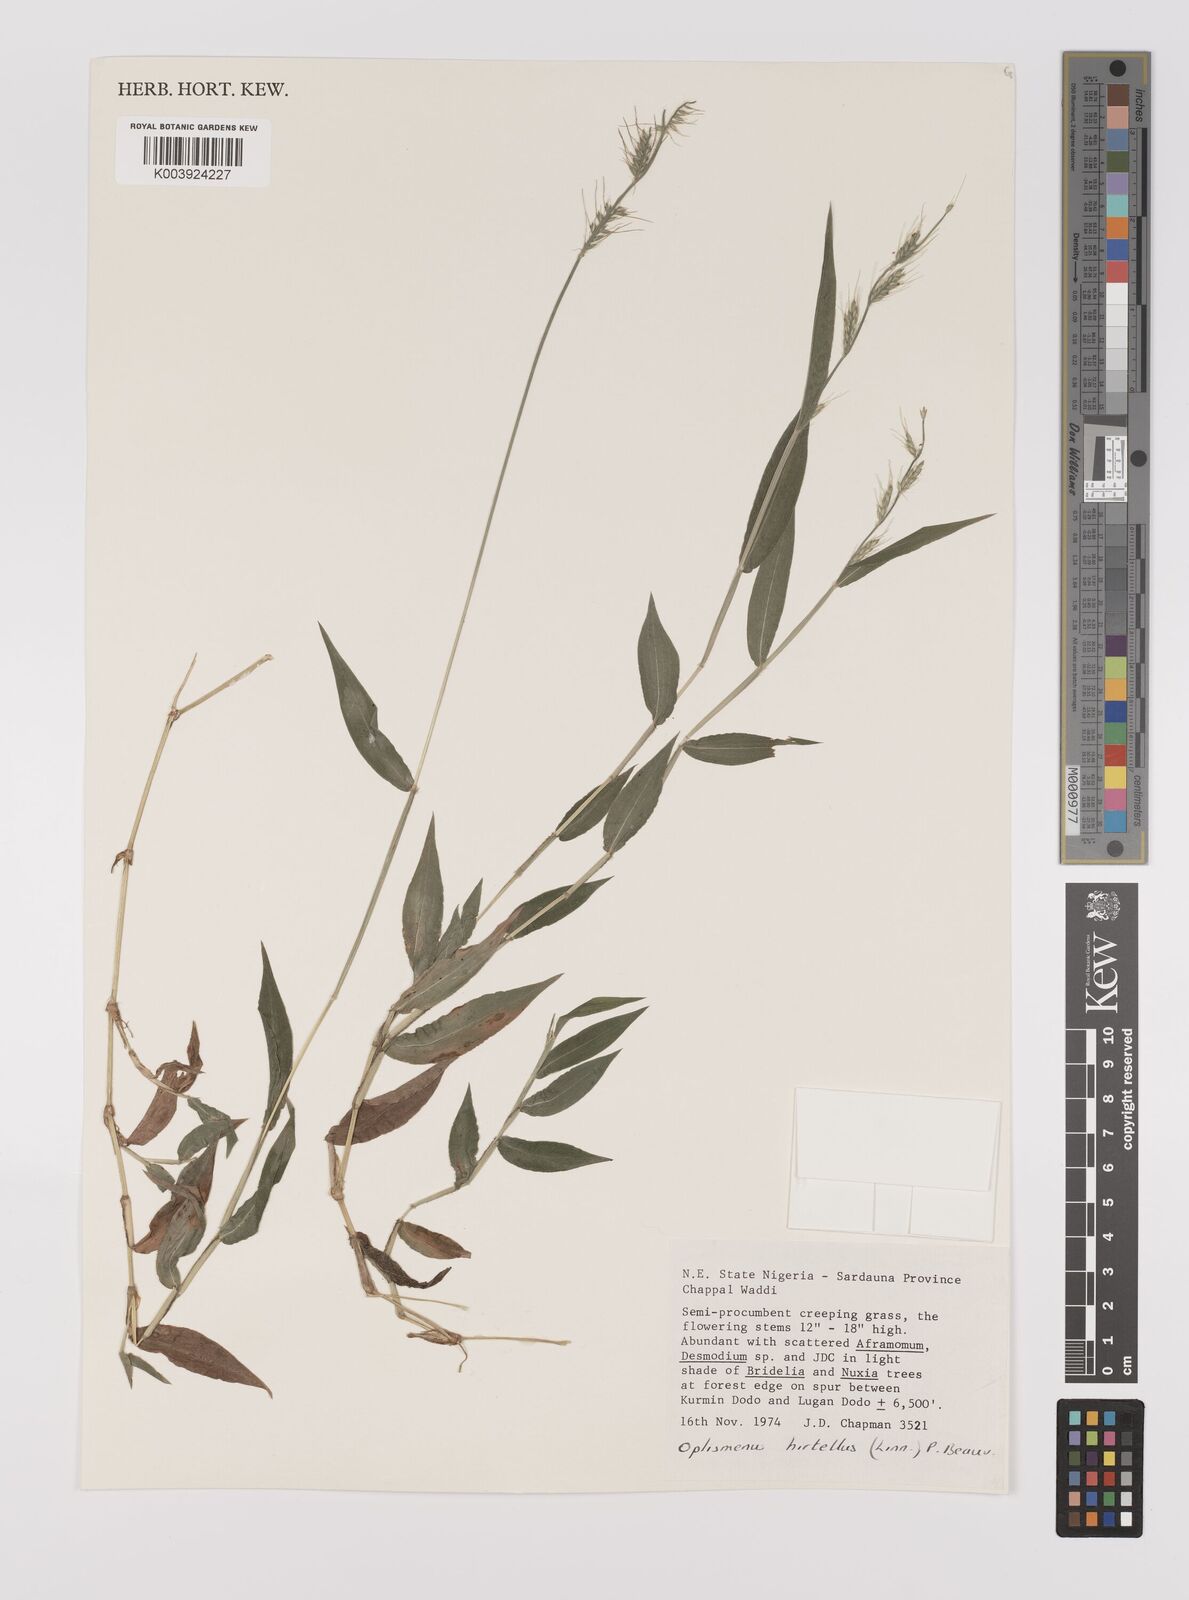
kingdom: Plantae
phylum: Tracheophyta
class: Liliopsida
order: Poales
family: Poaceae
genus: Oplismenus
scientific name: Oplismenus hirtellus
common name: Basketgrass
